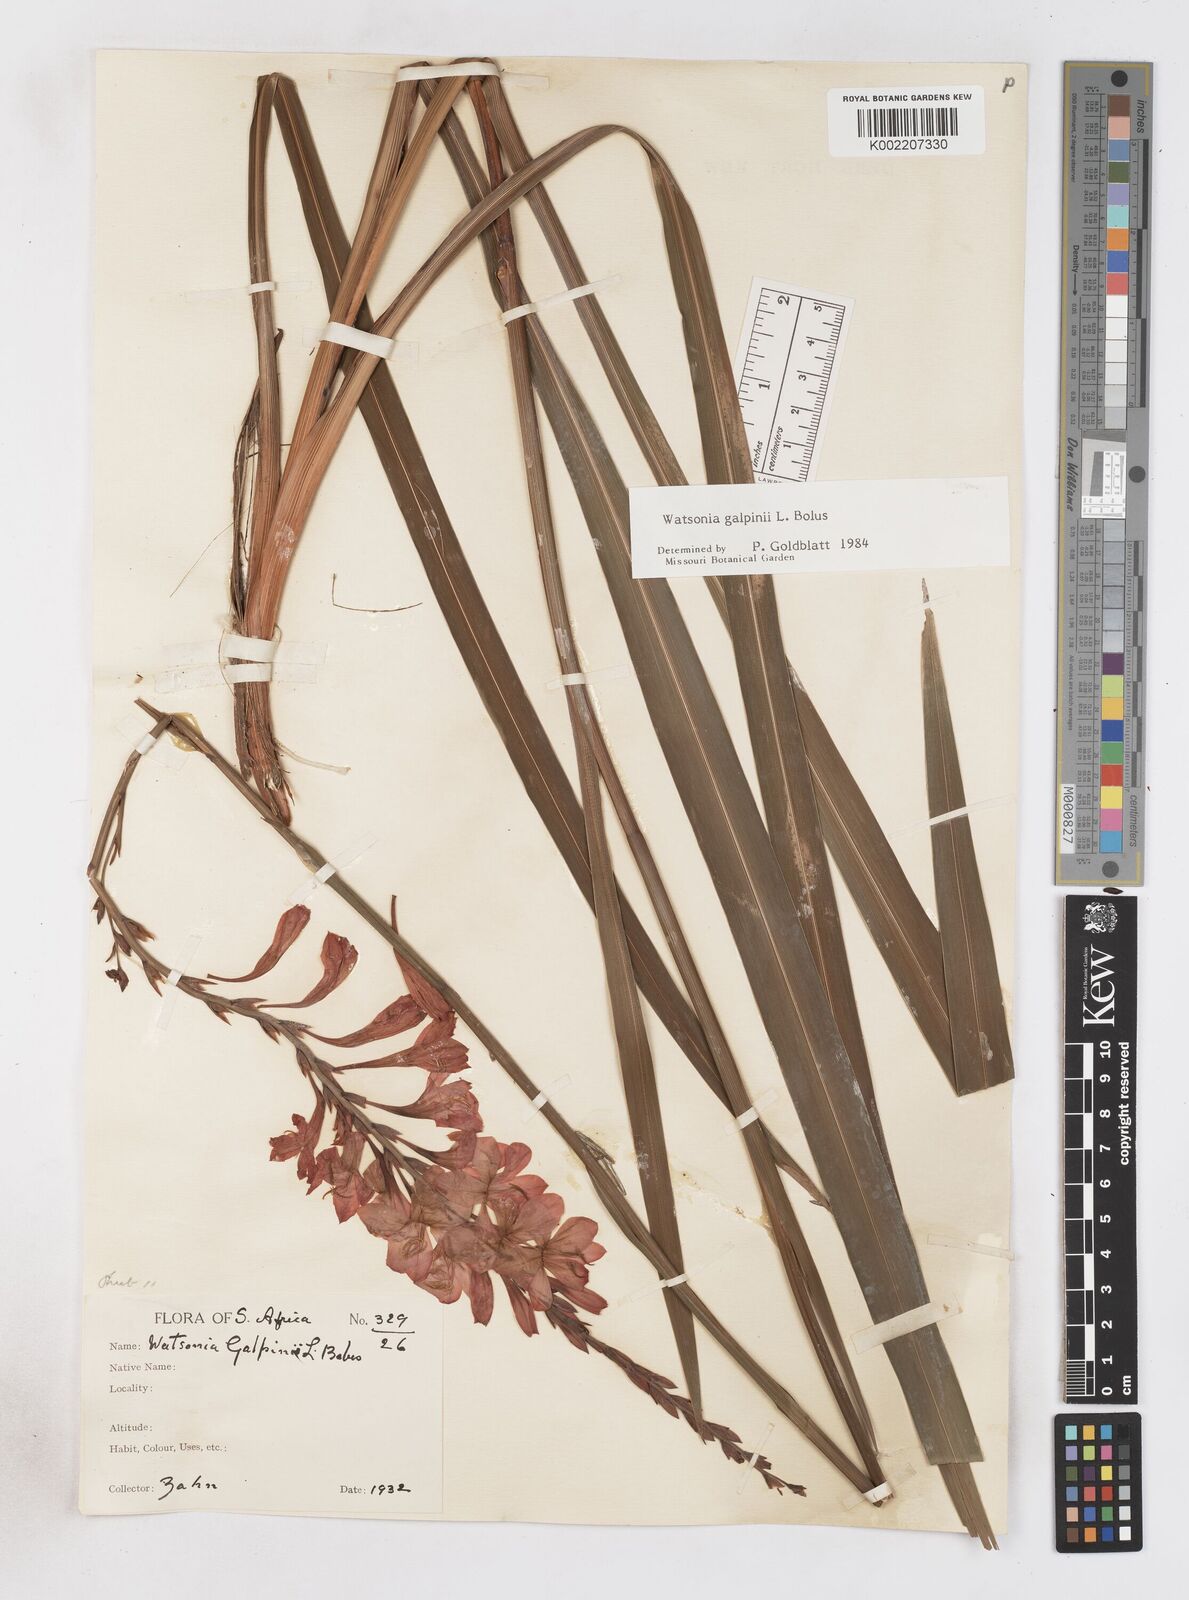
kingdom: Plantae
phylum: Tracheophyta
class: Liliopsida
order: Asparagales
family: Iridaceae
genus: Watsonia
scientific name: Watsonia galpinii
